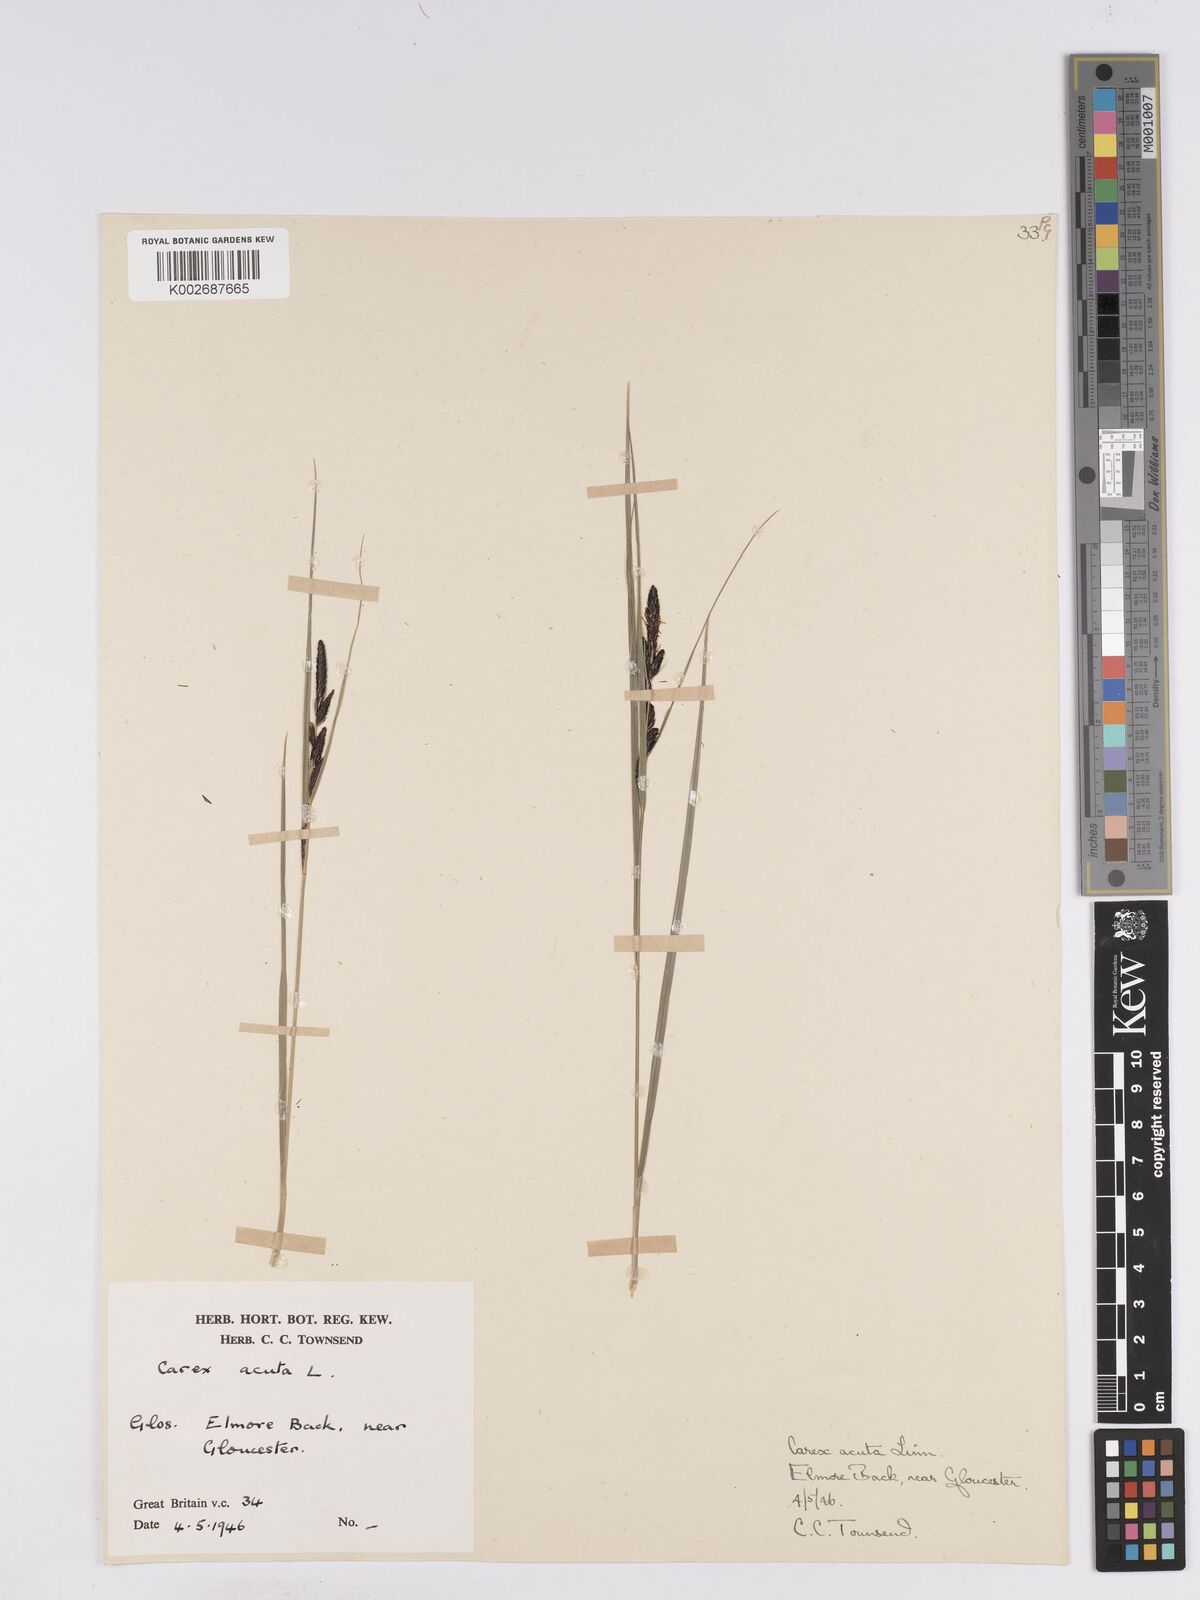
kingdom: Plantae
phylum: Tracheophyta
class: Liliopsida
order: Poales
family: Cyperaceae
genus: Carex
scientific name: Carex acuta
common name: Slender tufted-sedge
